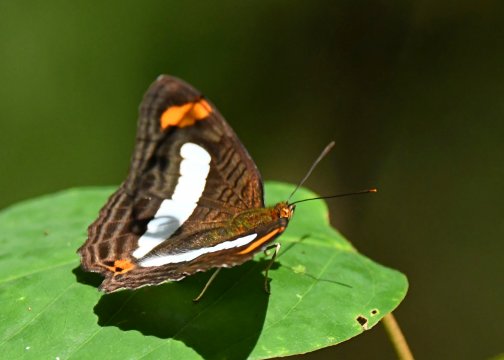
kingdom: Animalia
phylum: Arthropoda
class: Insecta
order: Lepidoptera
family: Nymphalidae
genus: Limenitis
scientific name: Limenitis Adelpha iphiclus
